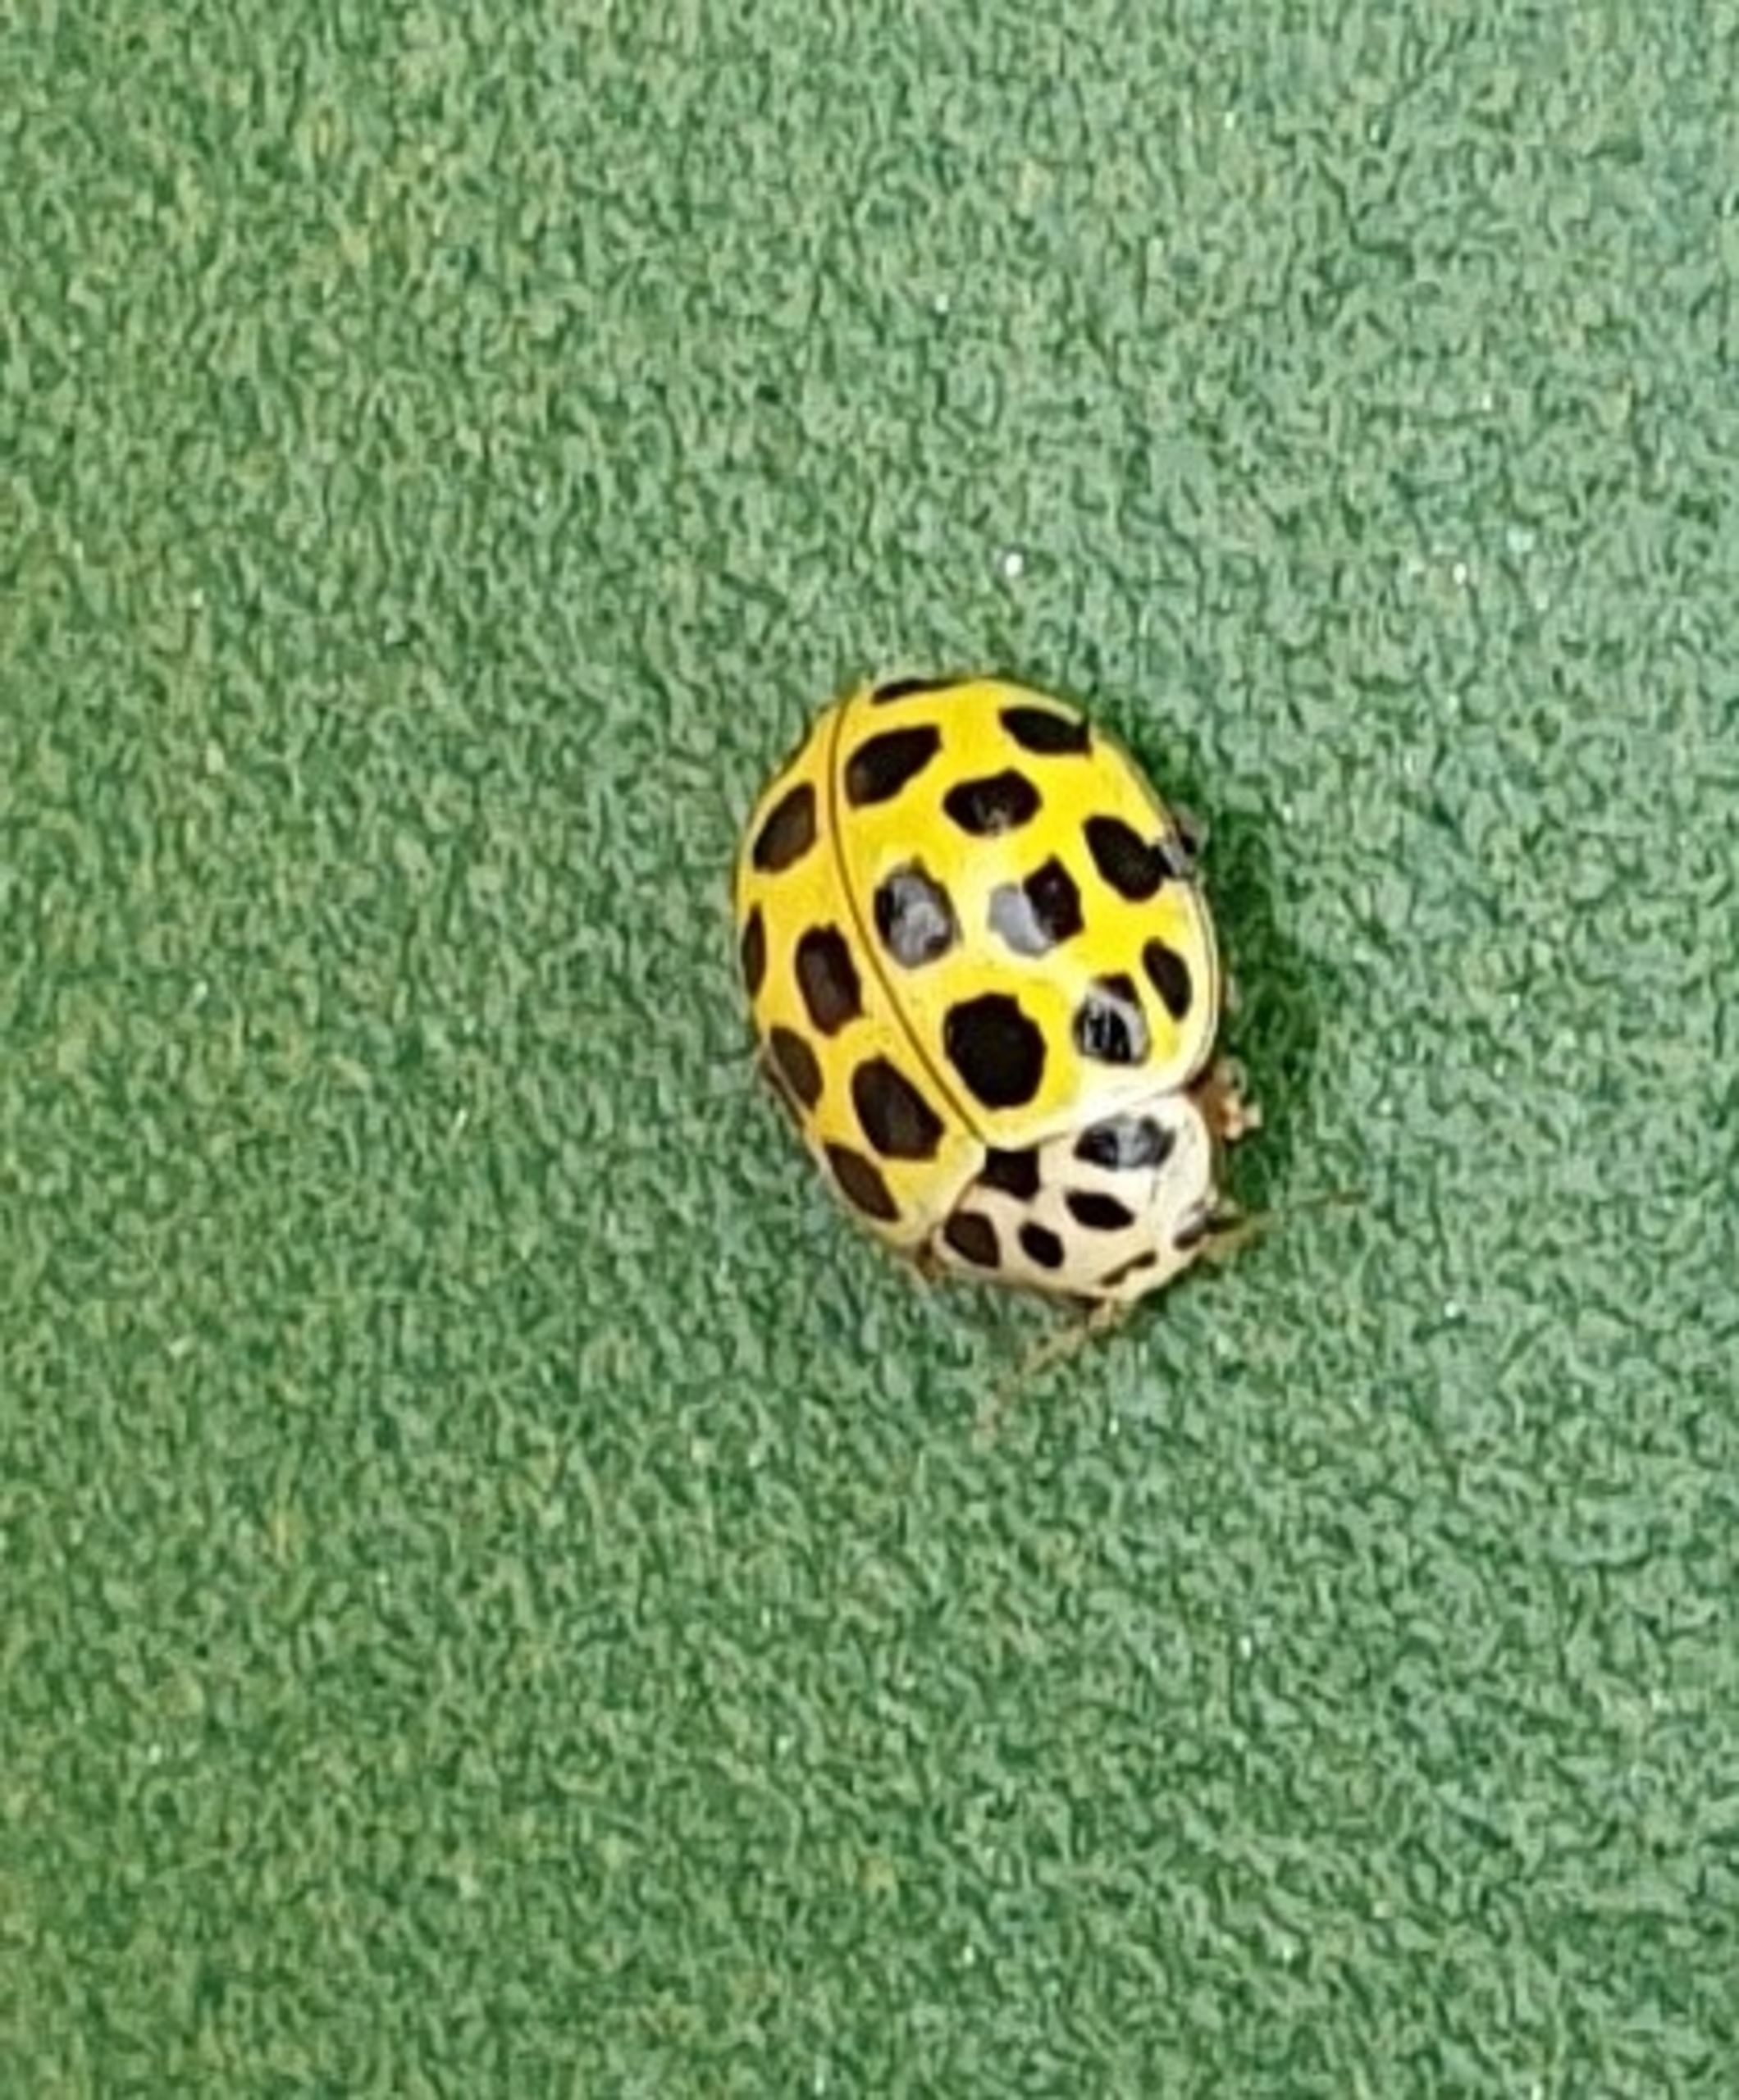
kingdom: Animalia
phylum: Arthropoda
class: Insecta
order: Coleoptera
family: Coccinellidae
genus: Psyllobora
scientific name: Psyllobora vigintiduopunctata
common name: Toogtyveplettet mariehøne
